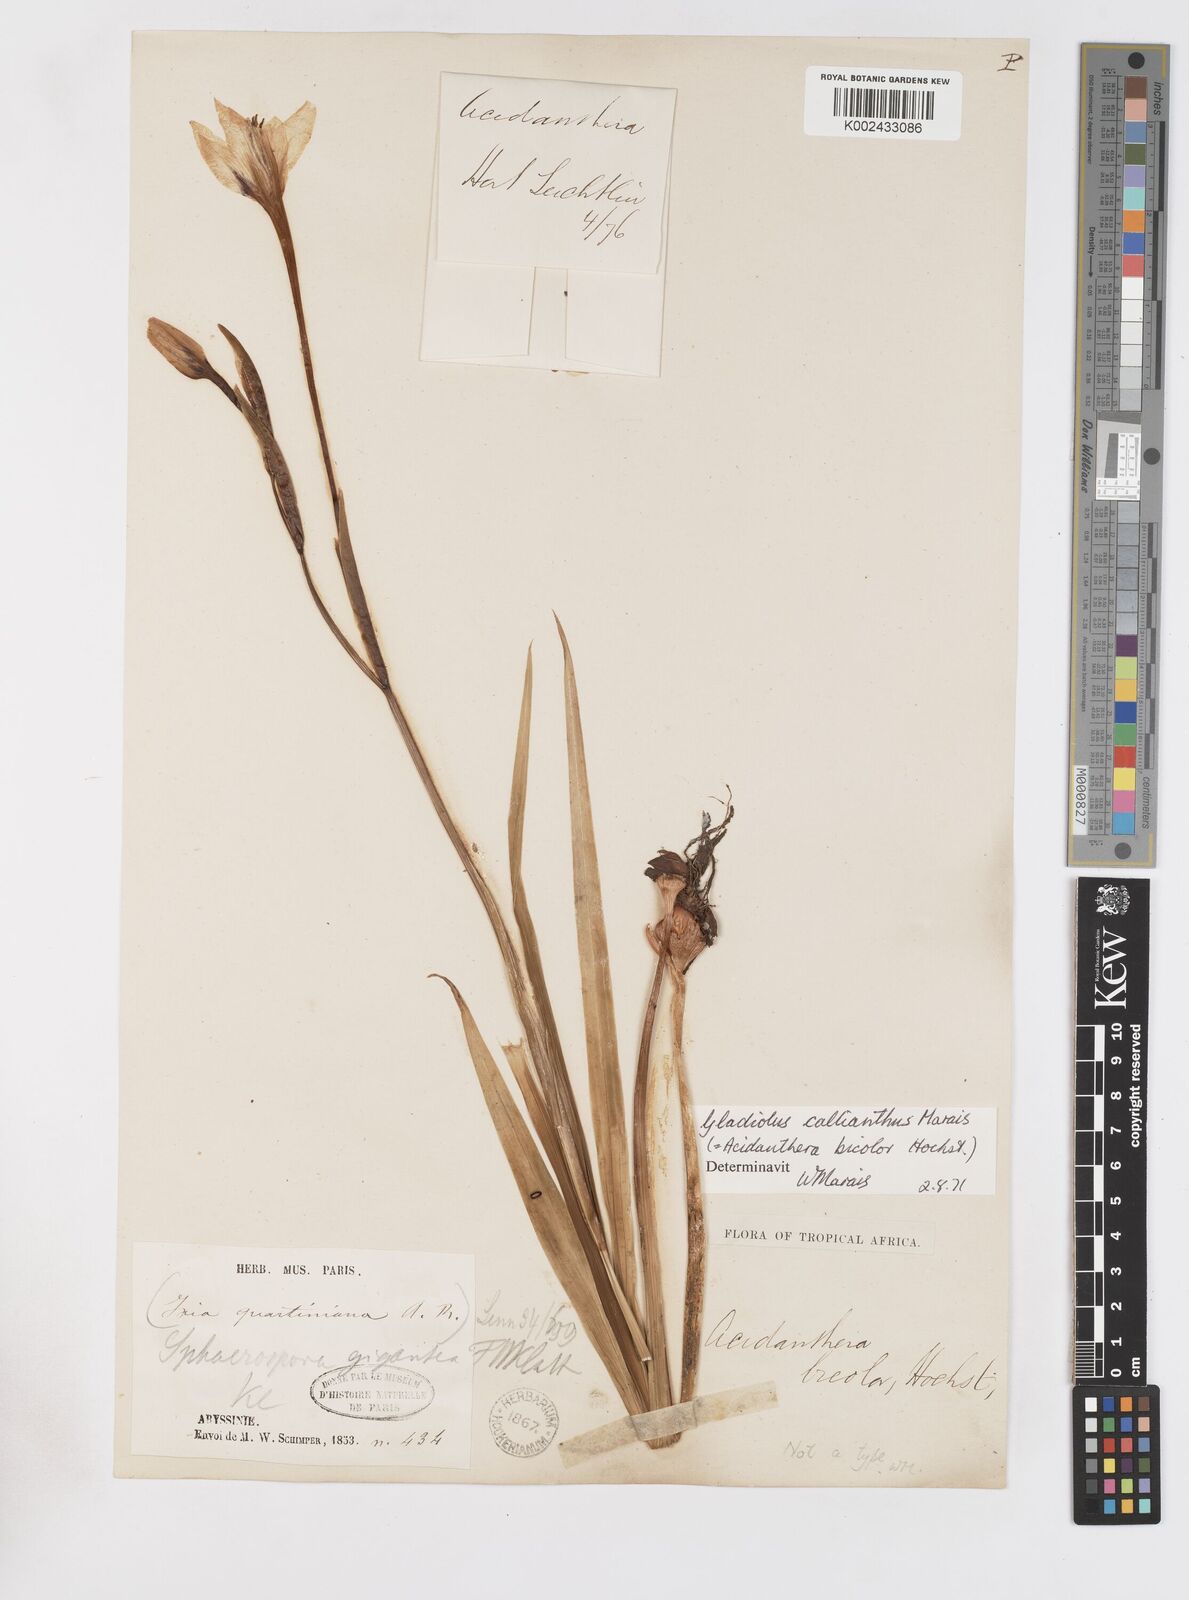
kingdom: Plantae
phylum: Tracheophyta
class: Liliopsida
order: Asparagales
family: Iridaceae
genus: Gladiolus
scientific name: Gladiolus murielae
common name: Acidanthera
